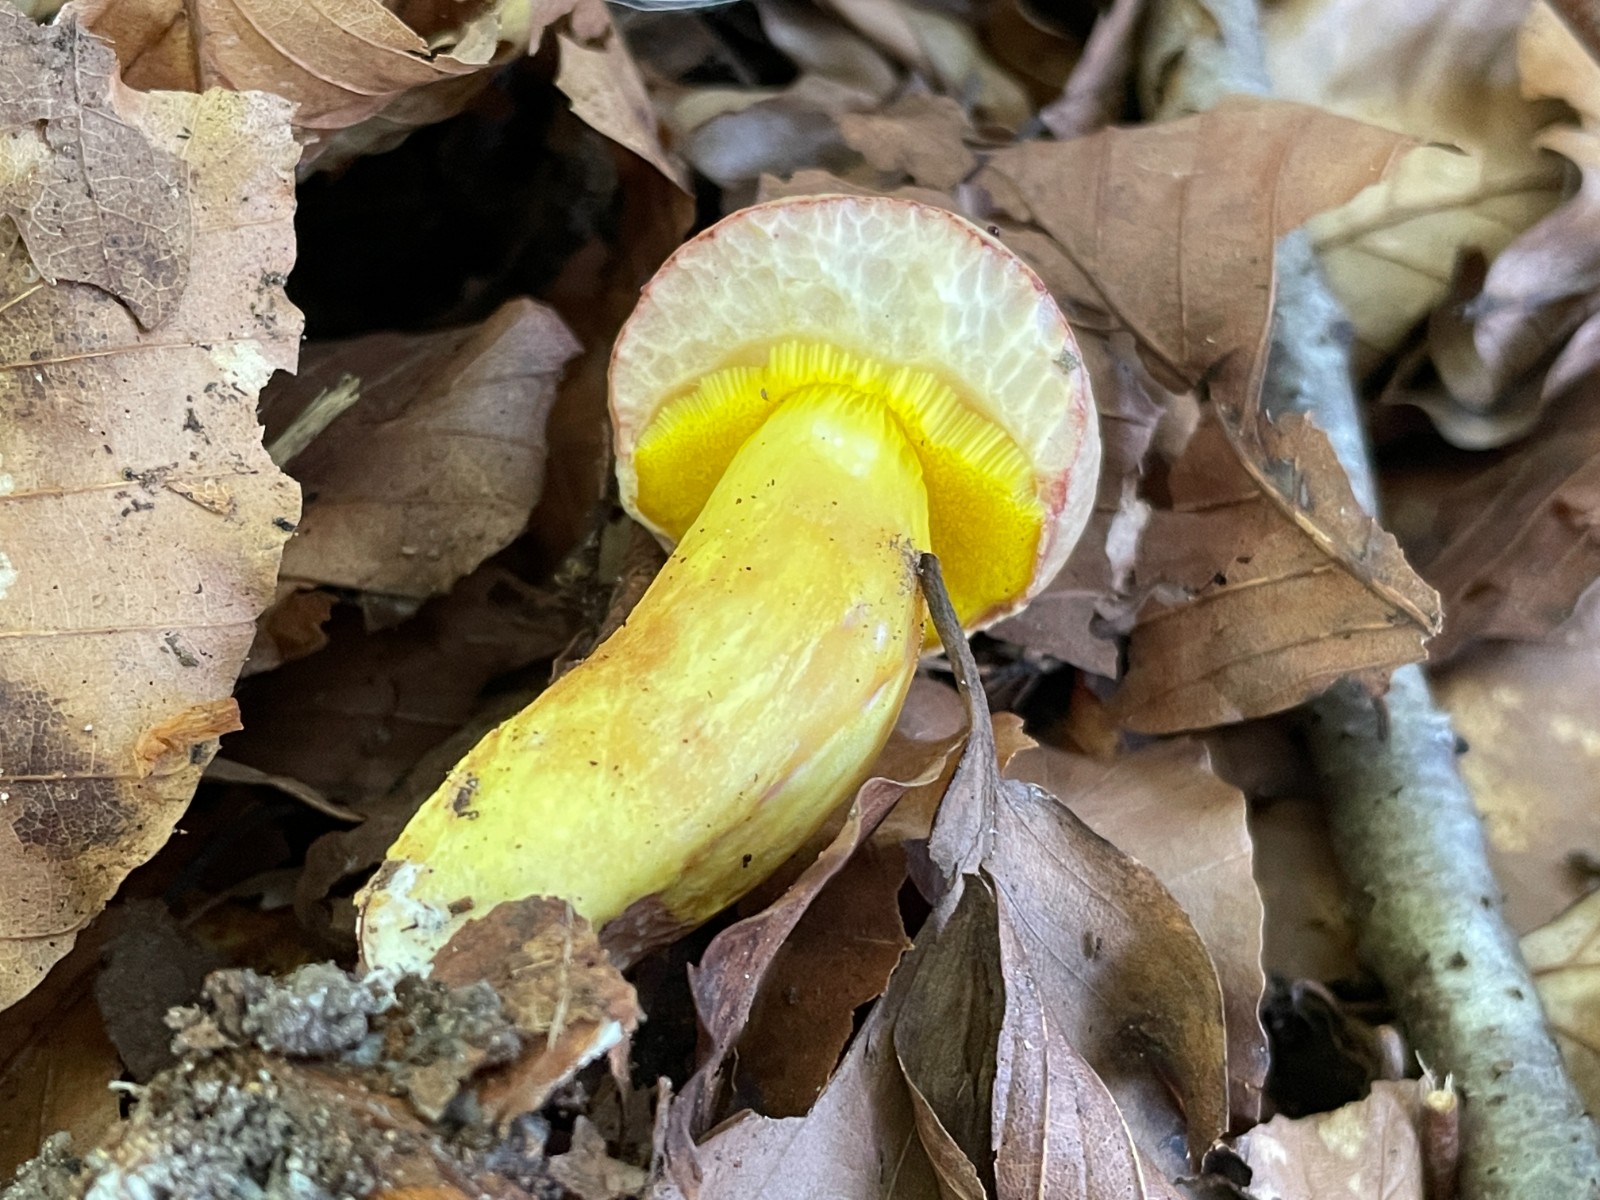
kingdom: Fungi
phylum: Basidiomycota
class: Agaricomycetes
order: Boletales
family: Boletaceae
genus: Aureoboletus
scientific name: Aureoboletus gentilis
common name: guldrørhat
